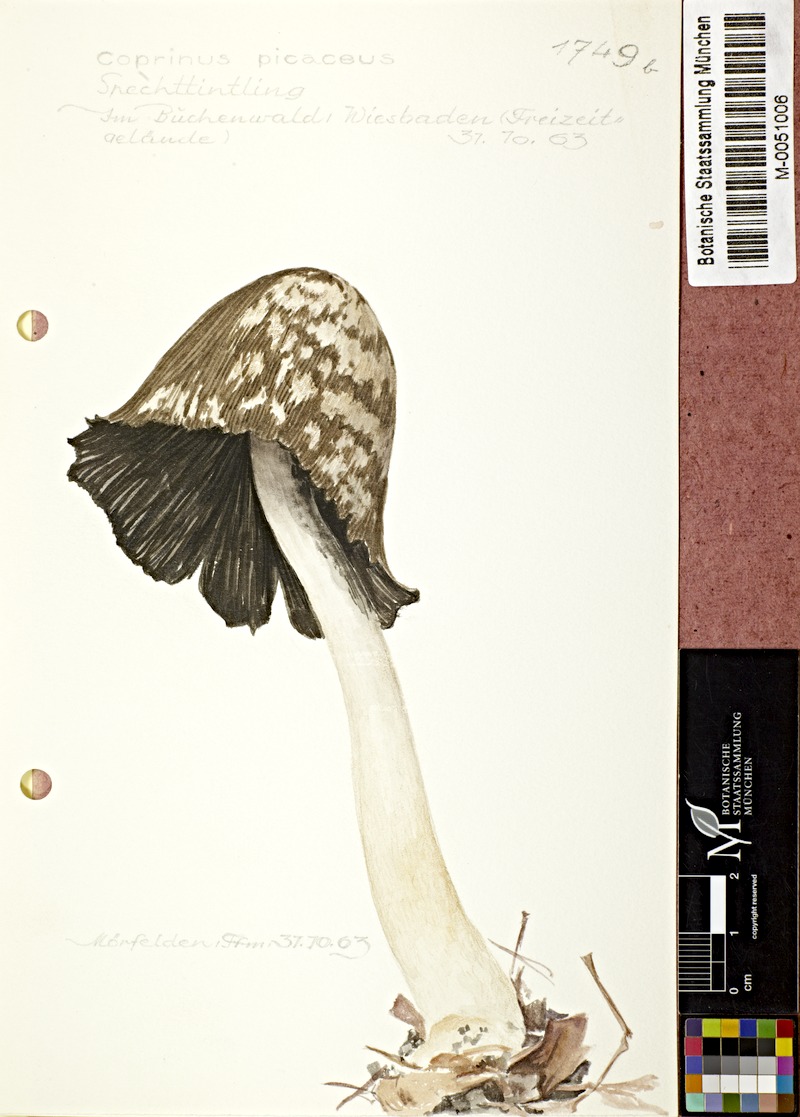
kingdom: Fungi
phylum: Basidiomycota
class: Agaricomycetes
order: Agaricales
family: Psathyrellaceae
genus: Coprinopsis
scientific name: Coprinopsis picacea
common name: Magpie inkcap
